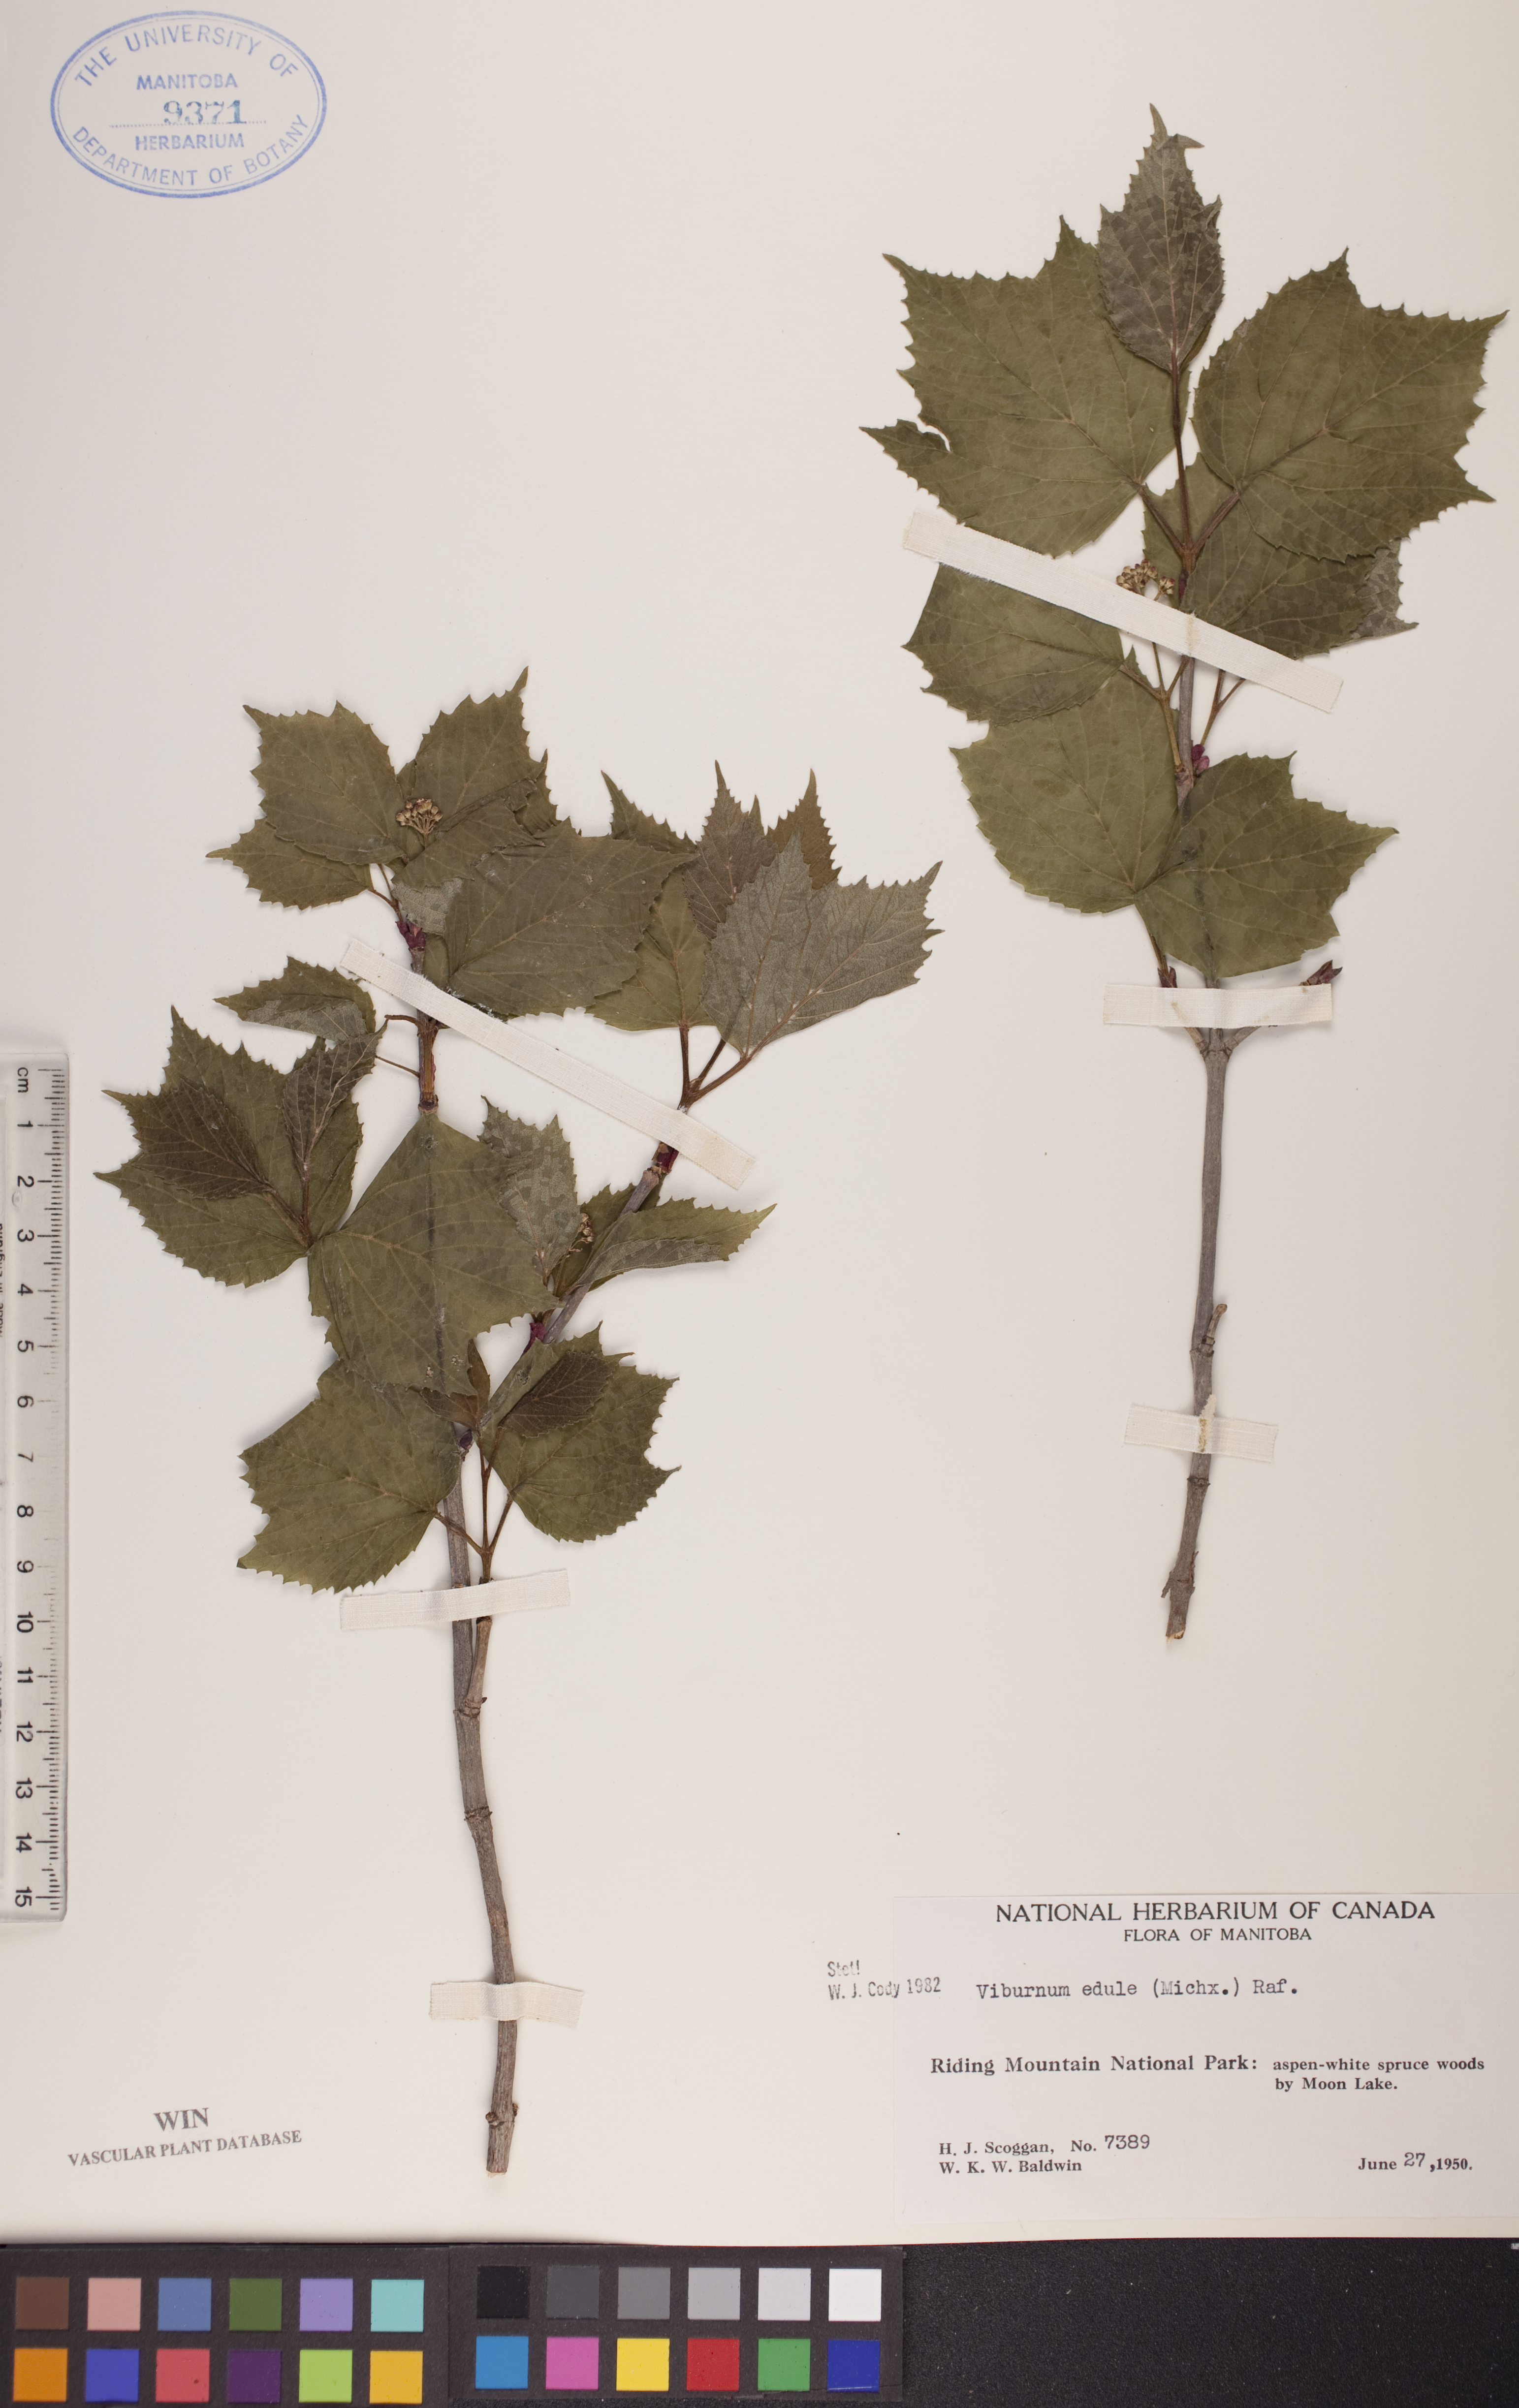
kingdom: Plantae
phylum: Tracheophyta
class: Magnoliopsida
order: Dipsacales
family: Viburnaceae
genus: Viburnum
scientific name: Viburnum edule
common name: Mooseberry
